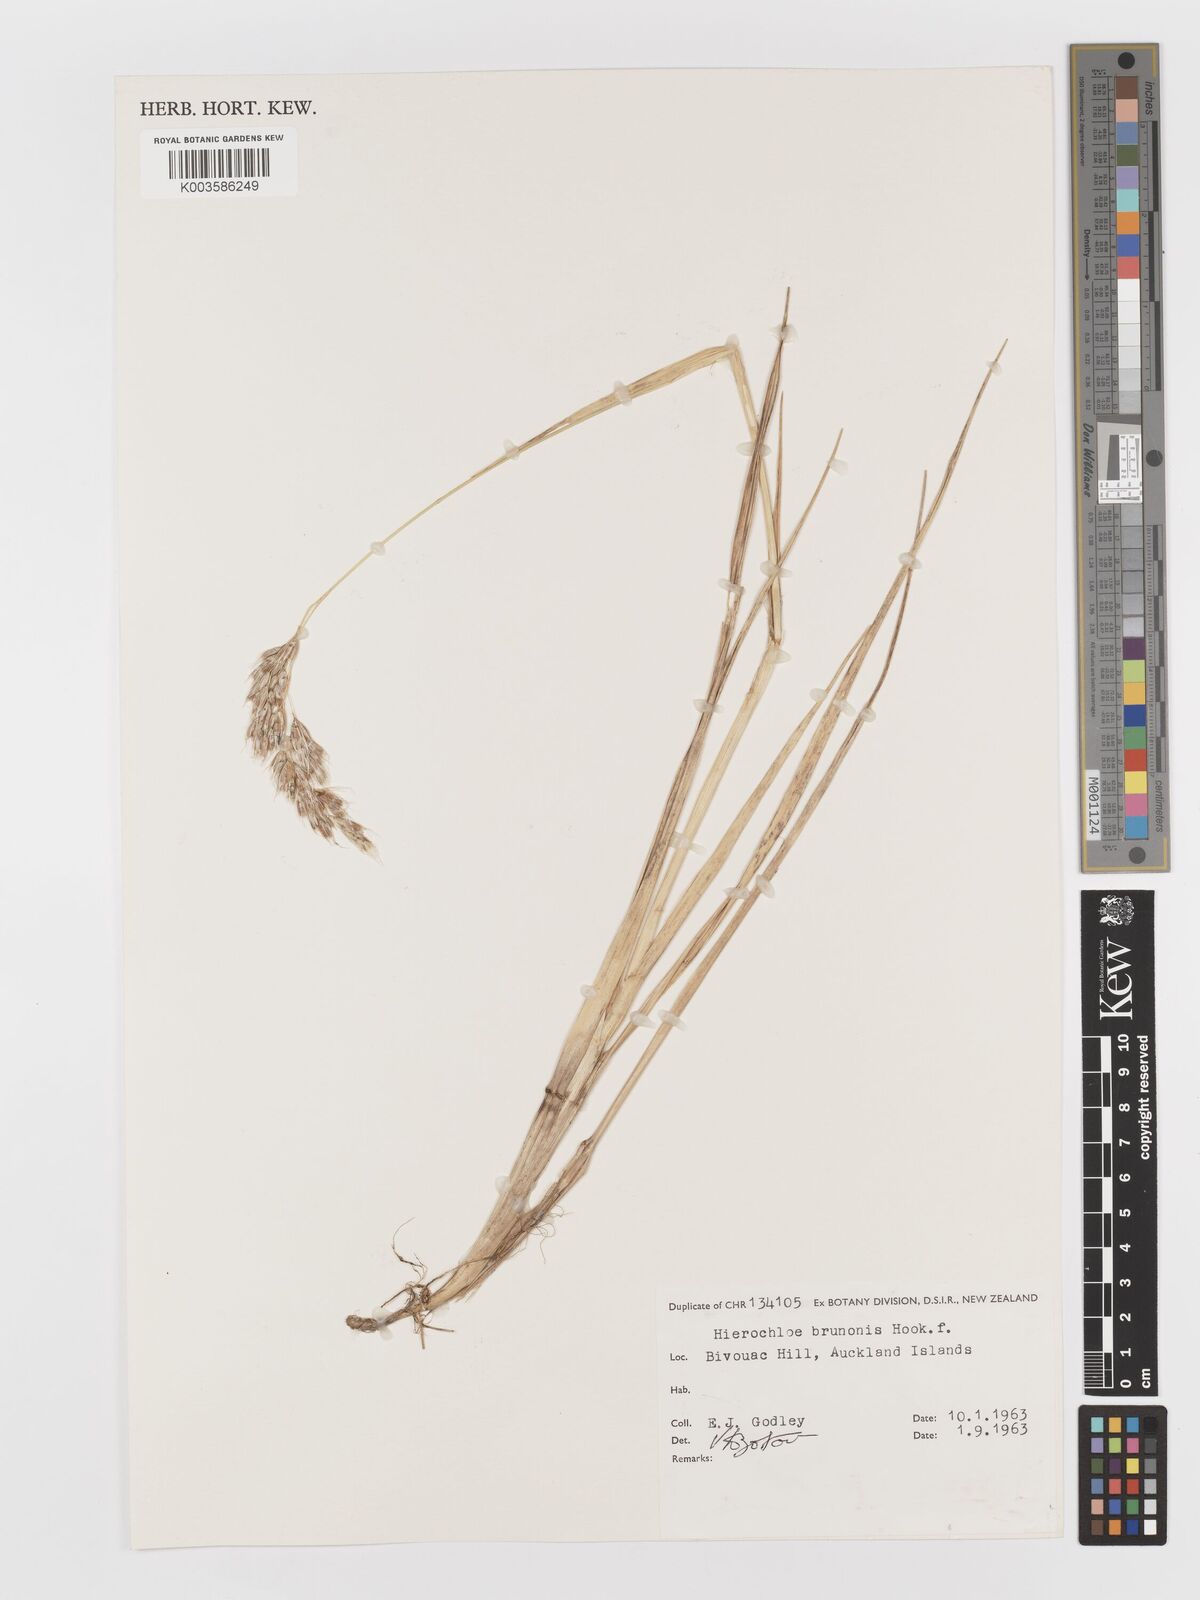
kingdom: Plantae
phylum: Tracheophyta
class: Liliopsida
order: Poales
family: Poaceae
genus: Anthoxanthum
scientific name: Anthoxanthum brunonis
